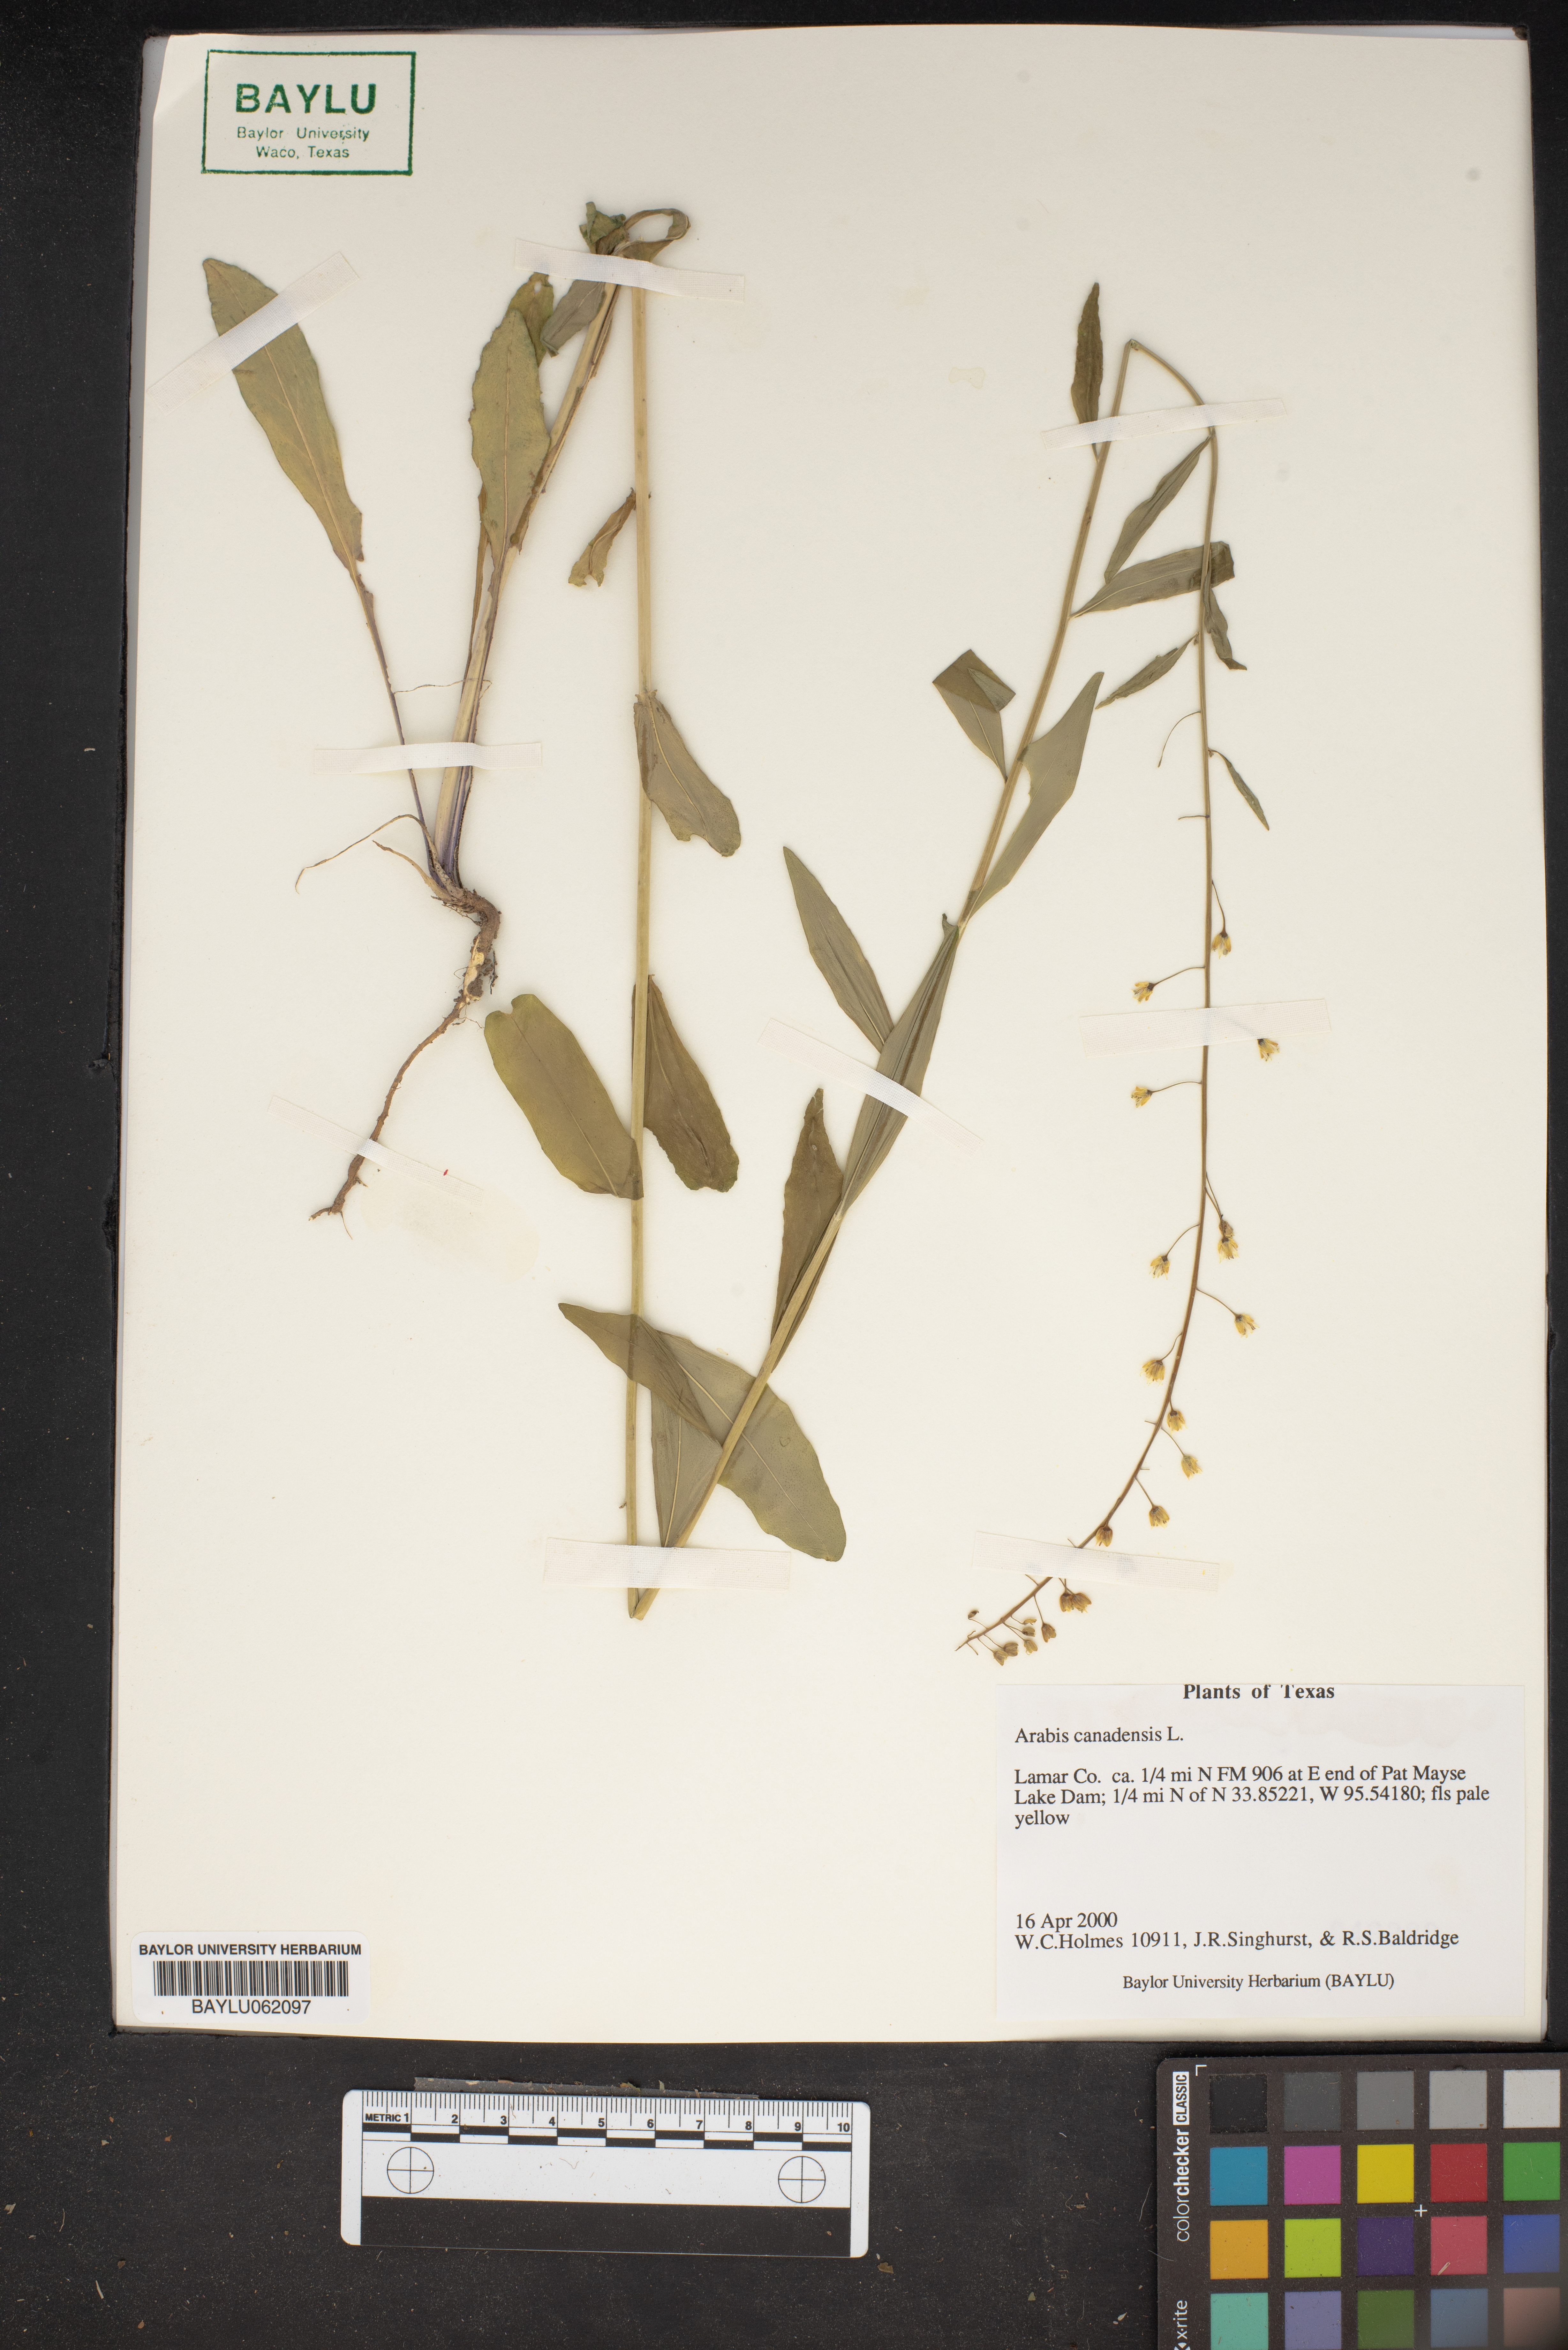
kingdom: Plantae
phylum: Tracheophyta
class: Magnoliopsida
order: Brassicales
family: Brassicaceae
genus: Borodinia
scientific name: Borodinia canadensis
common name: Sicklepod
